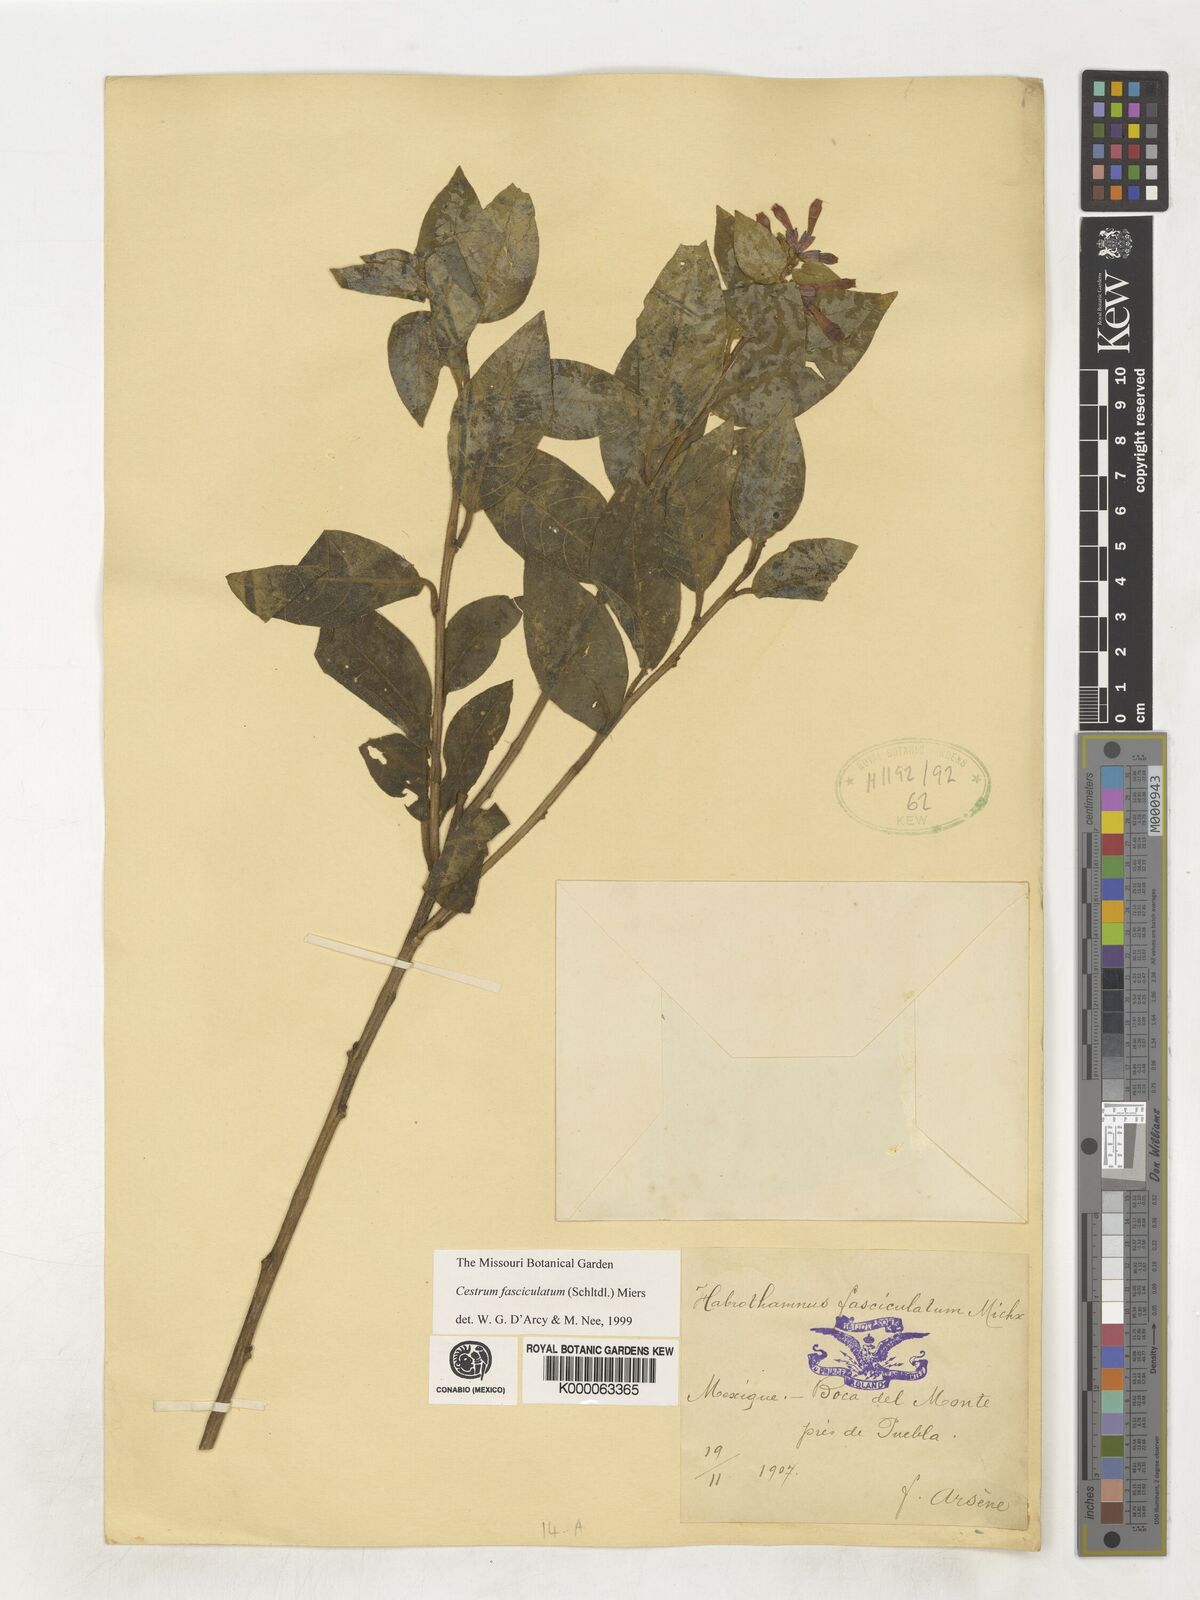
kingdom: Plantae
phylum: Tracheophyta
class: Magnoliopsida
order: Solanales
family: Solanaceae
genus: Cestrum
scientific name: Cestrum fasciculatum
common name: Early jessamine
